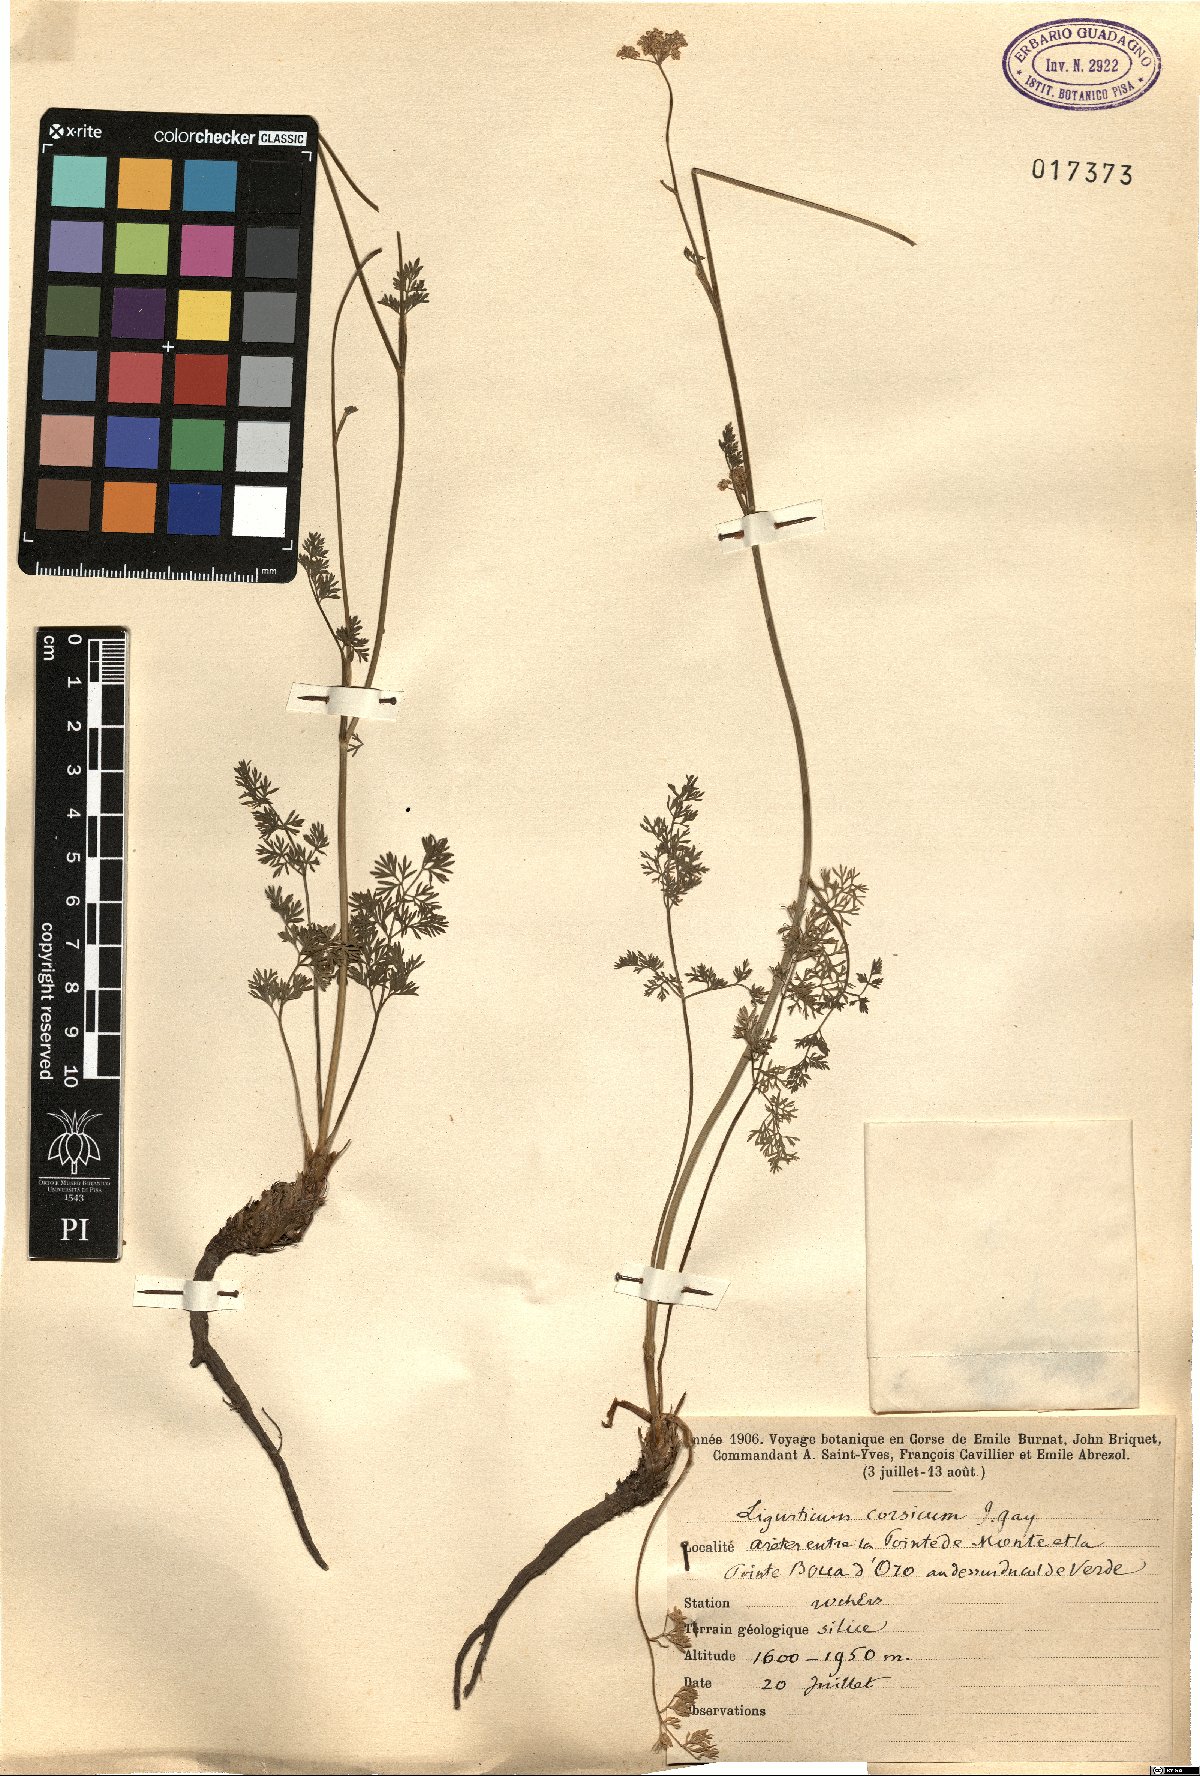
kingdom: Plantae
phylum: Tracheophyta
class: Magnoliopsida
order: Apiales
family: Apiaceae
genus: Mutellina
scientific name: Mutellina corsica
